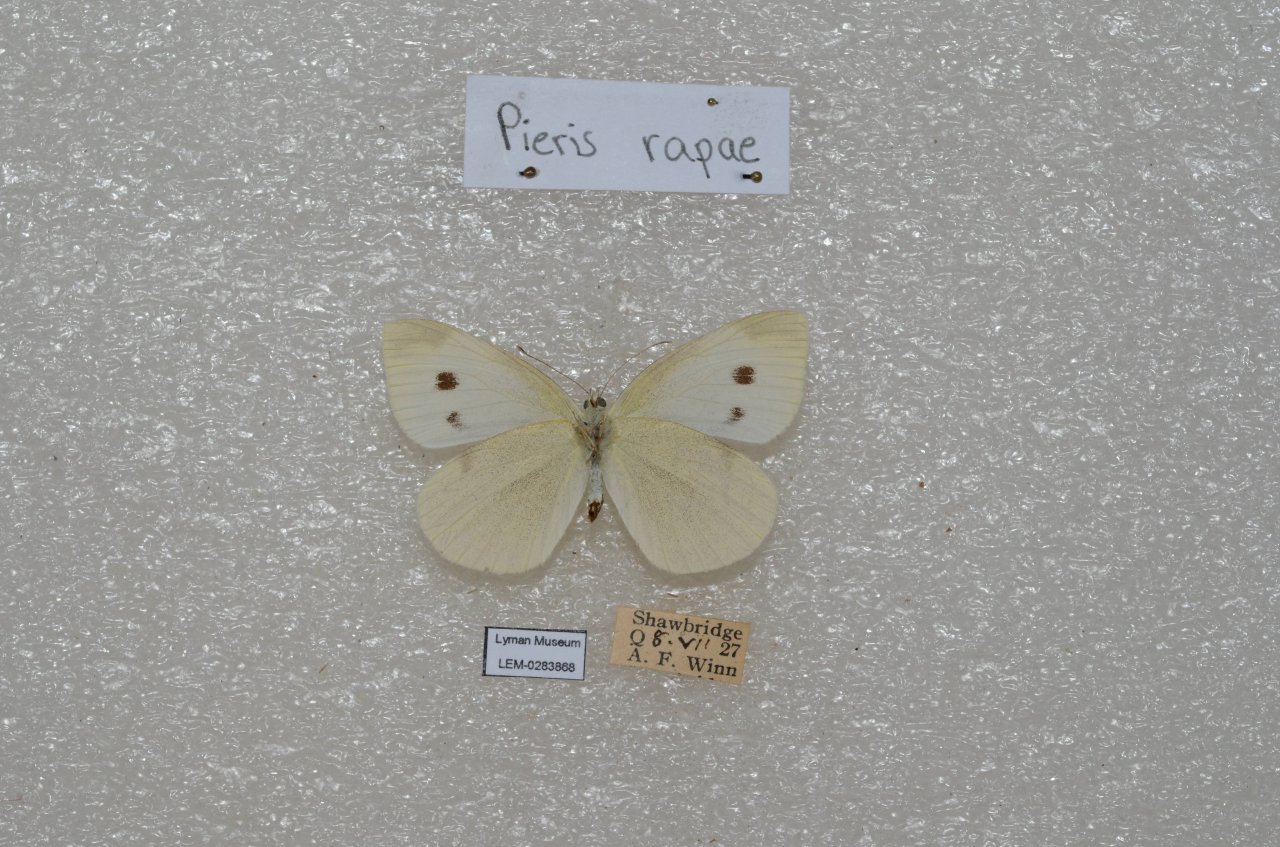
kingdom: Animalia
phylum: Arthropoda
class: Insecta
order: Lepidoptera
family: Pieridae
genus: Pieris
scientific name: Pieris rapae
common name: Cabbage White
